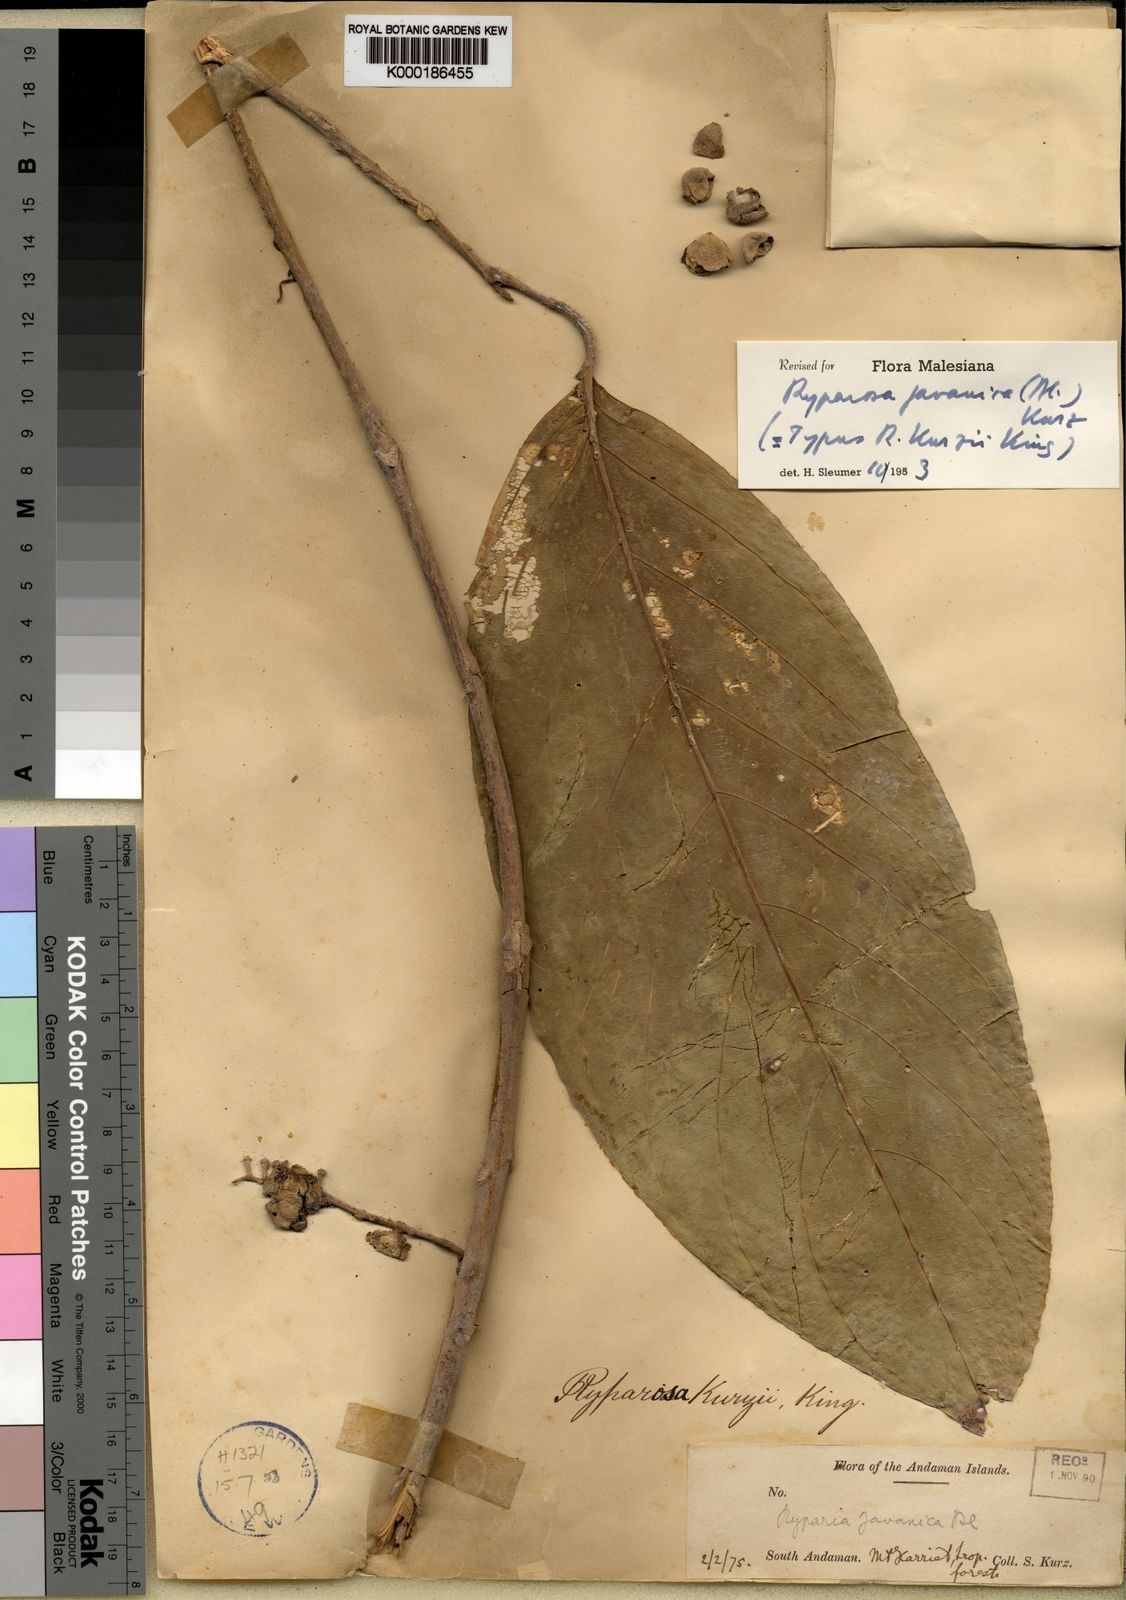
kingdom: Plantae
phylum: Tracheophyta
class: Magnoliopsida
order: Malpighiales
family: Achariaceae
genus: Ryparosa
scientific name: Ryparosa javanica
